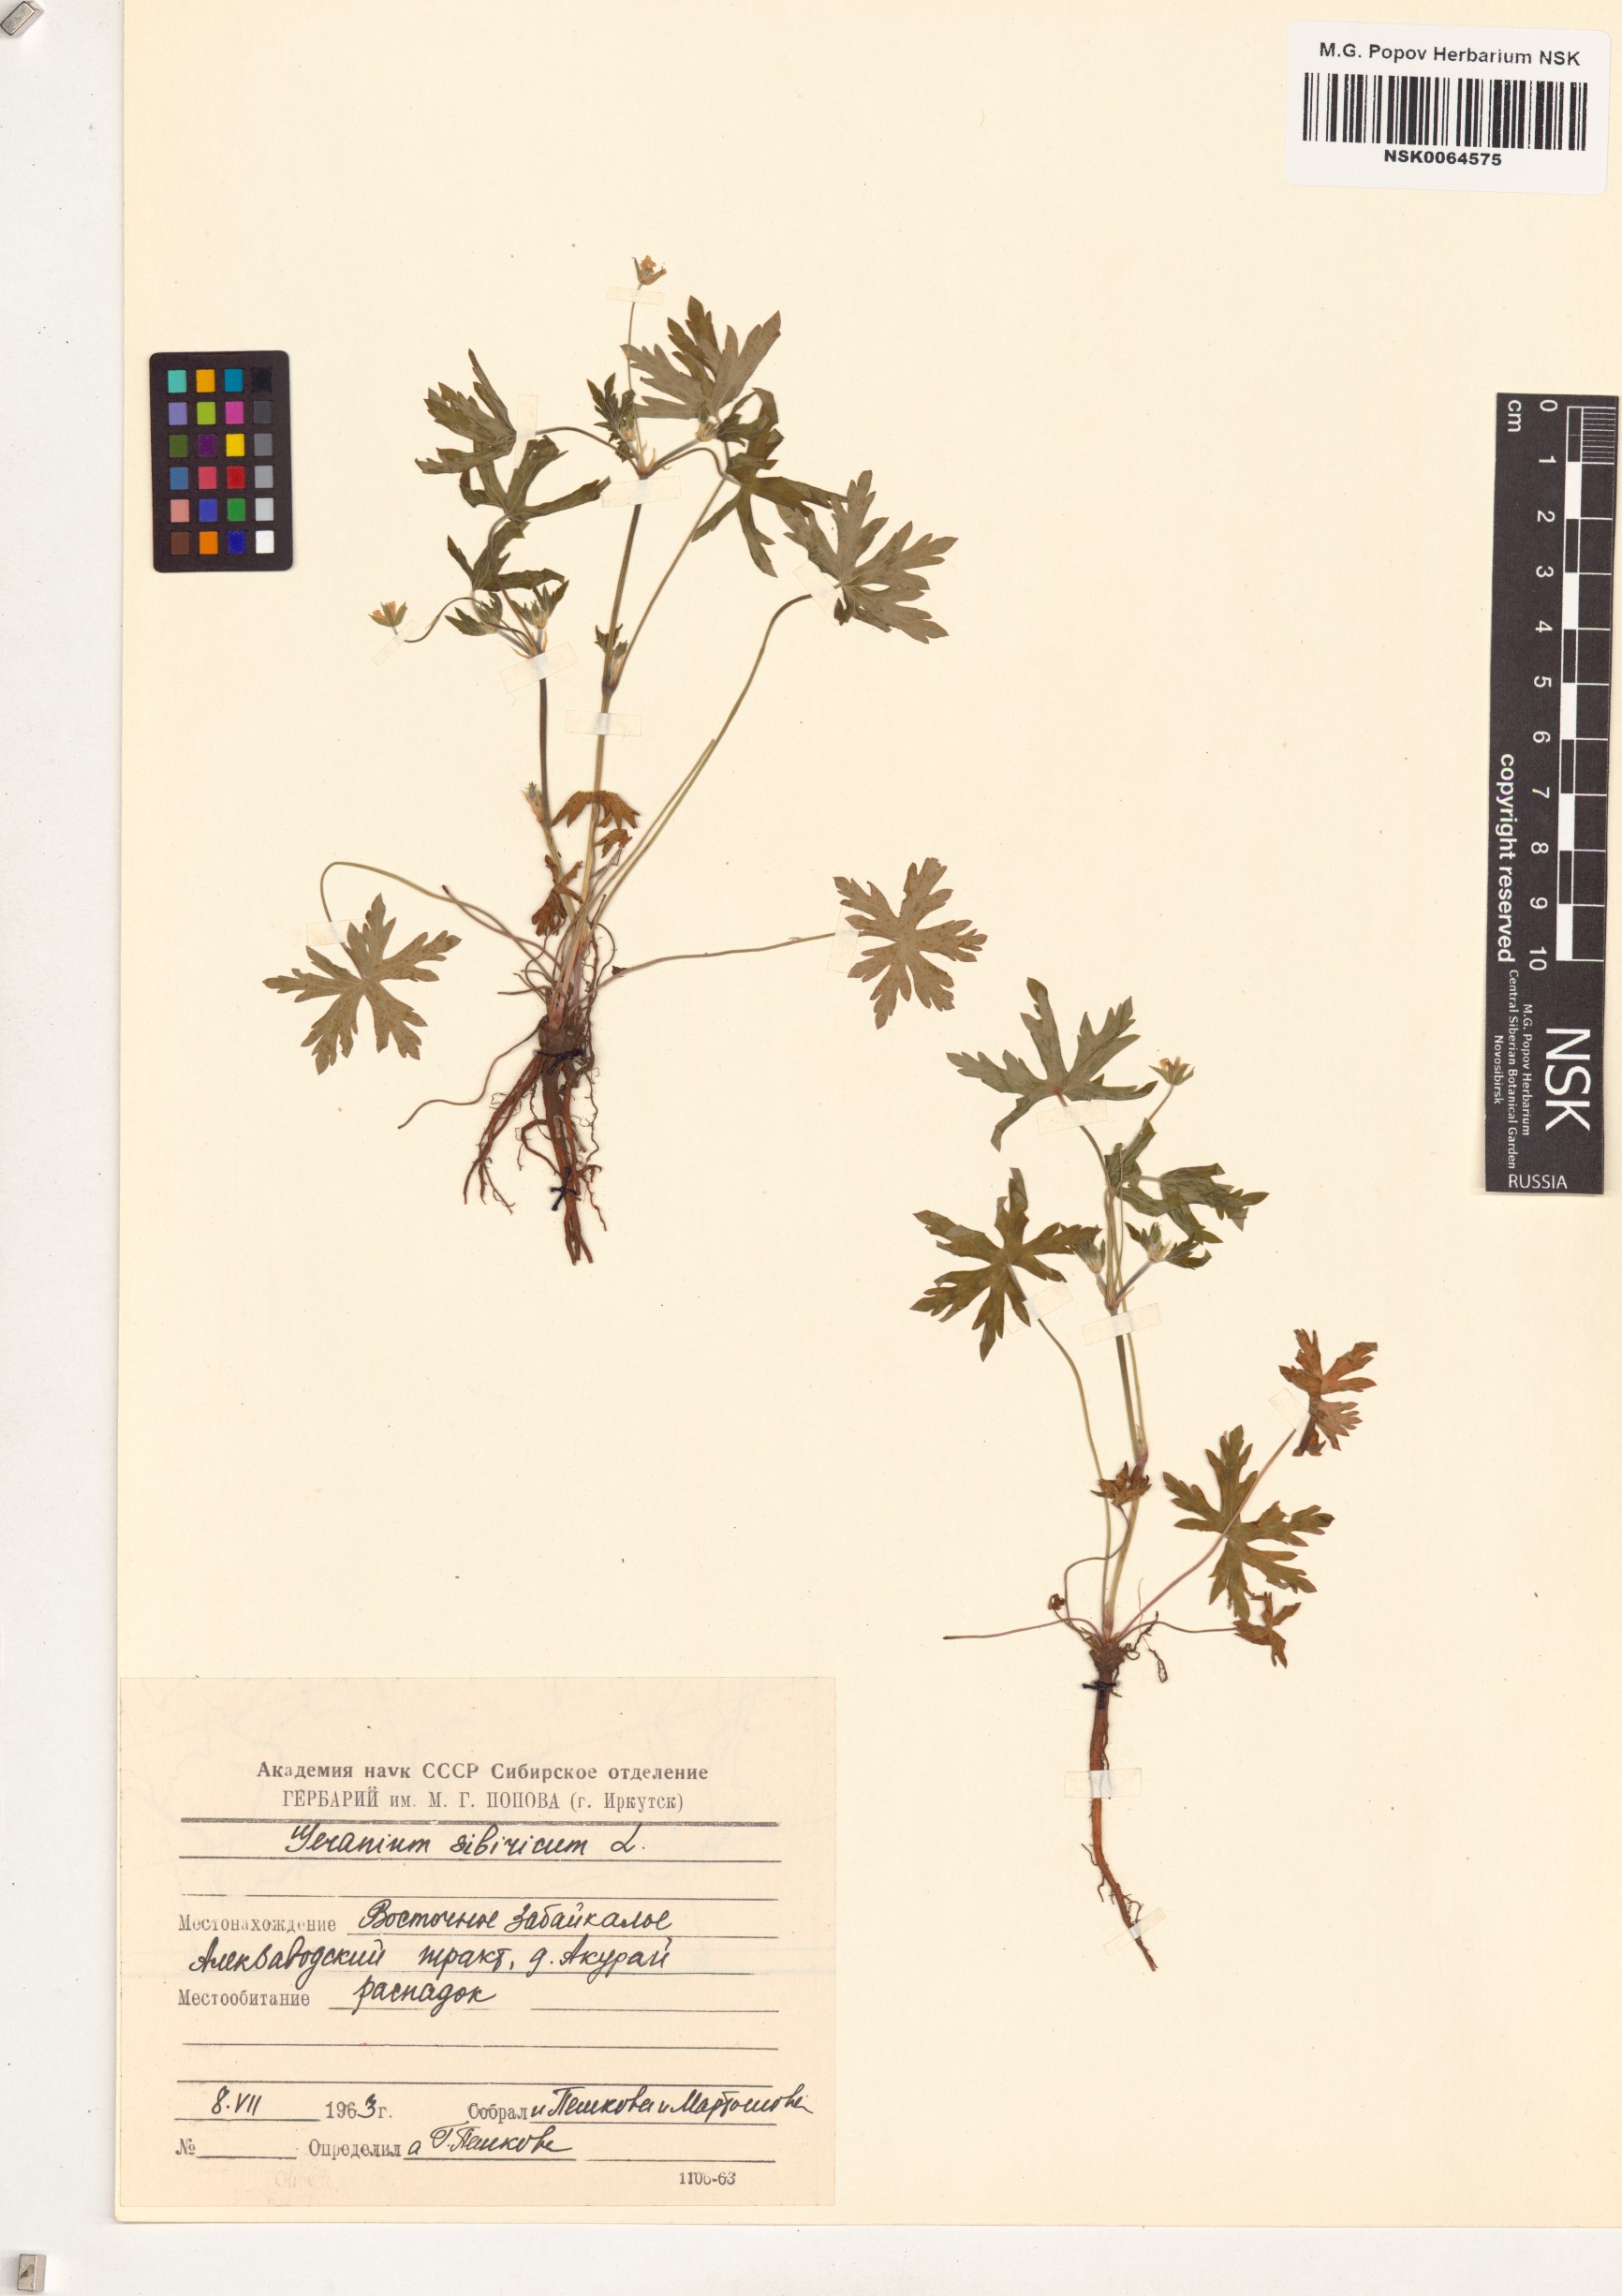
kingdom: Plantae
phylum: Tracheophyta
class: Magnoliopsida
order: Geraniales
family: Geraniaceae
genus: Geranium
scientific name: Geranium sibiricum
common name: Siberian crane's-bill
